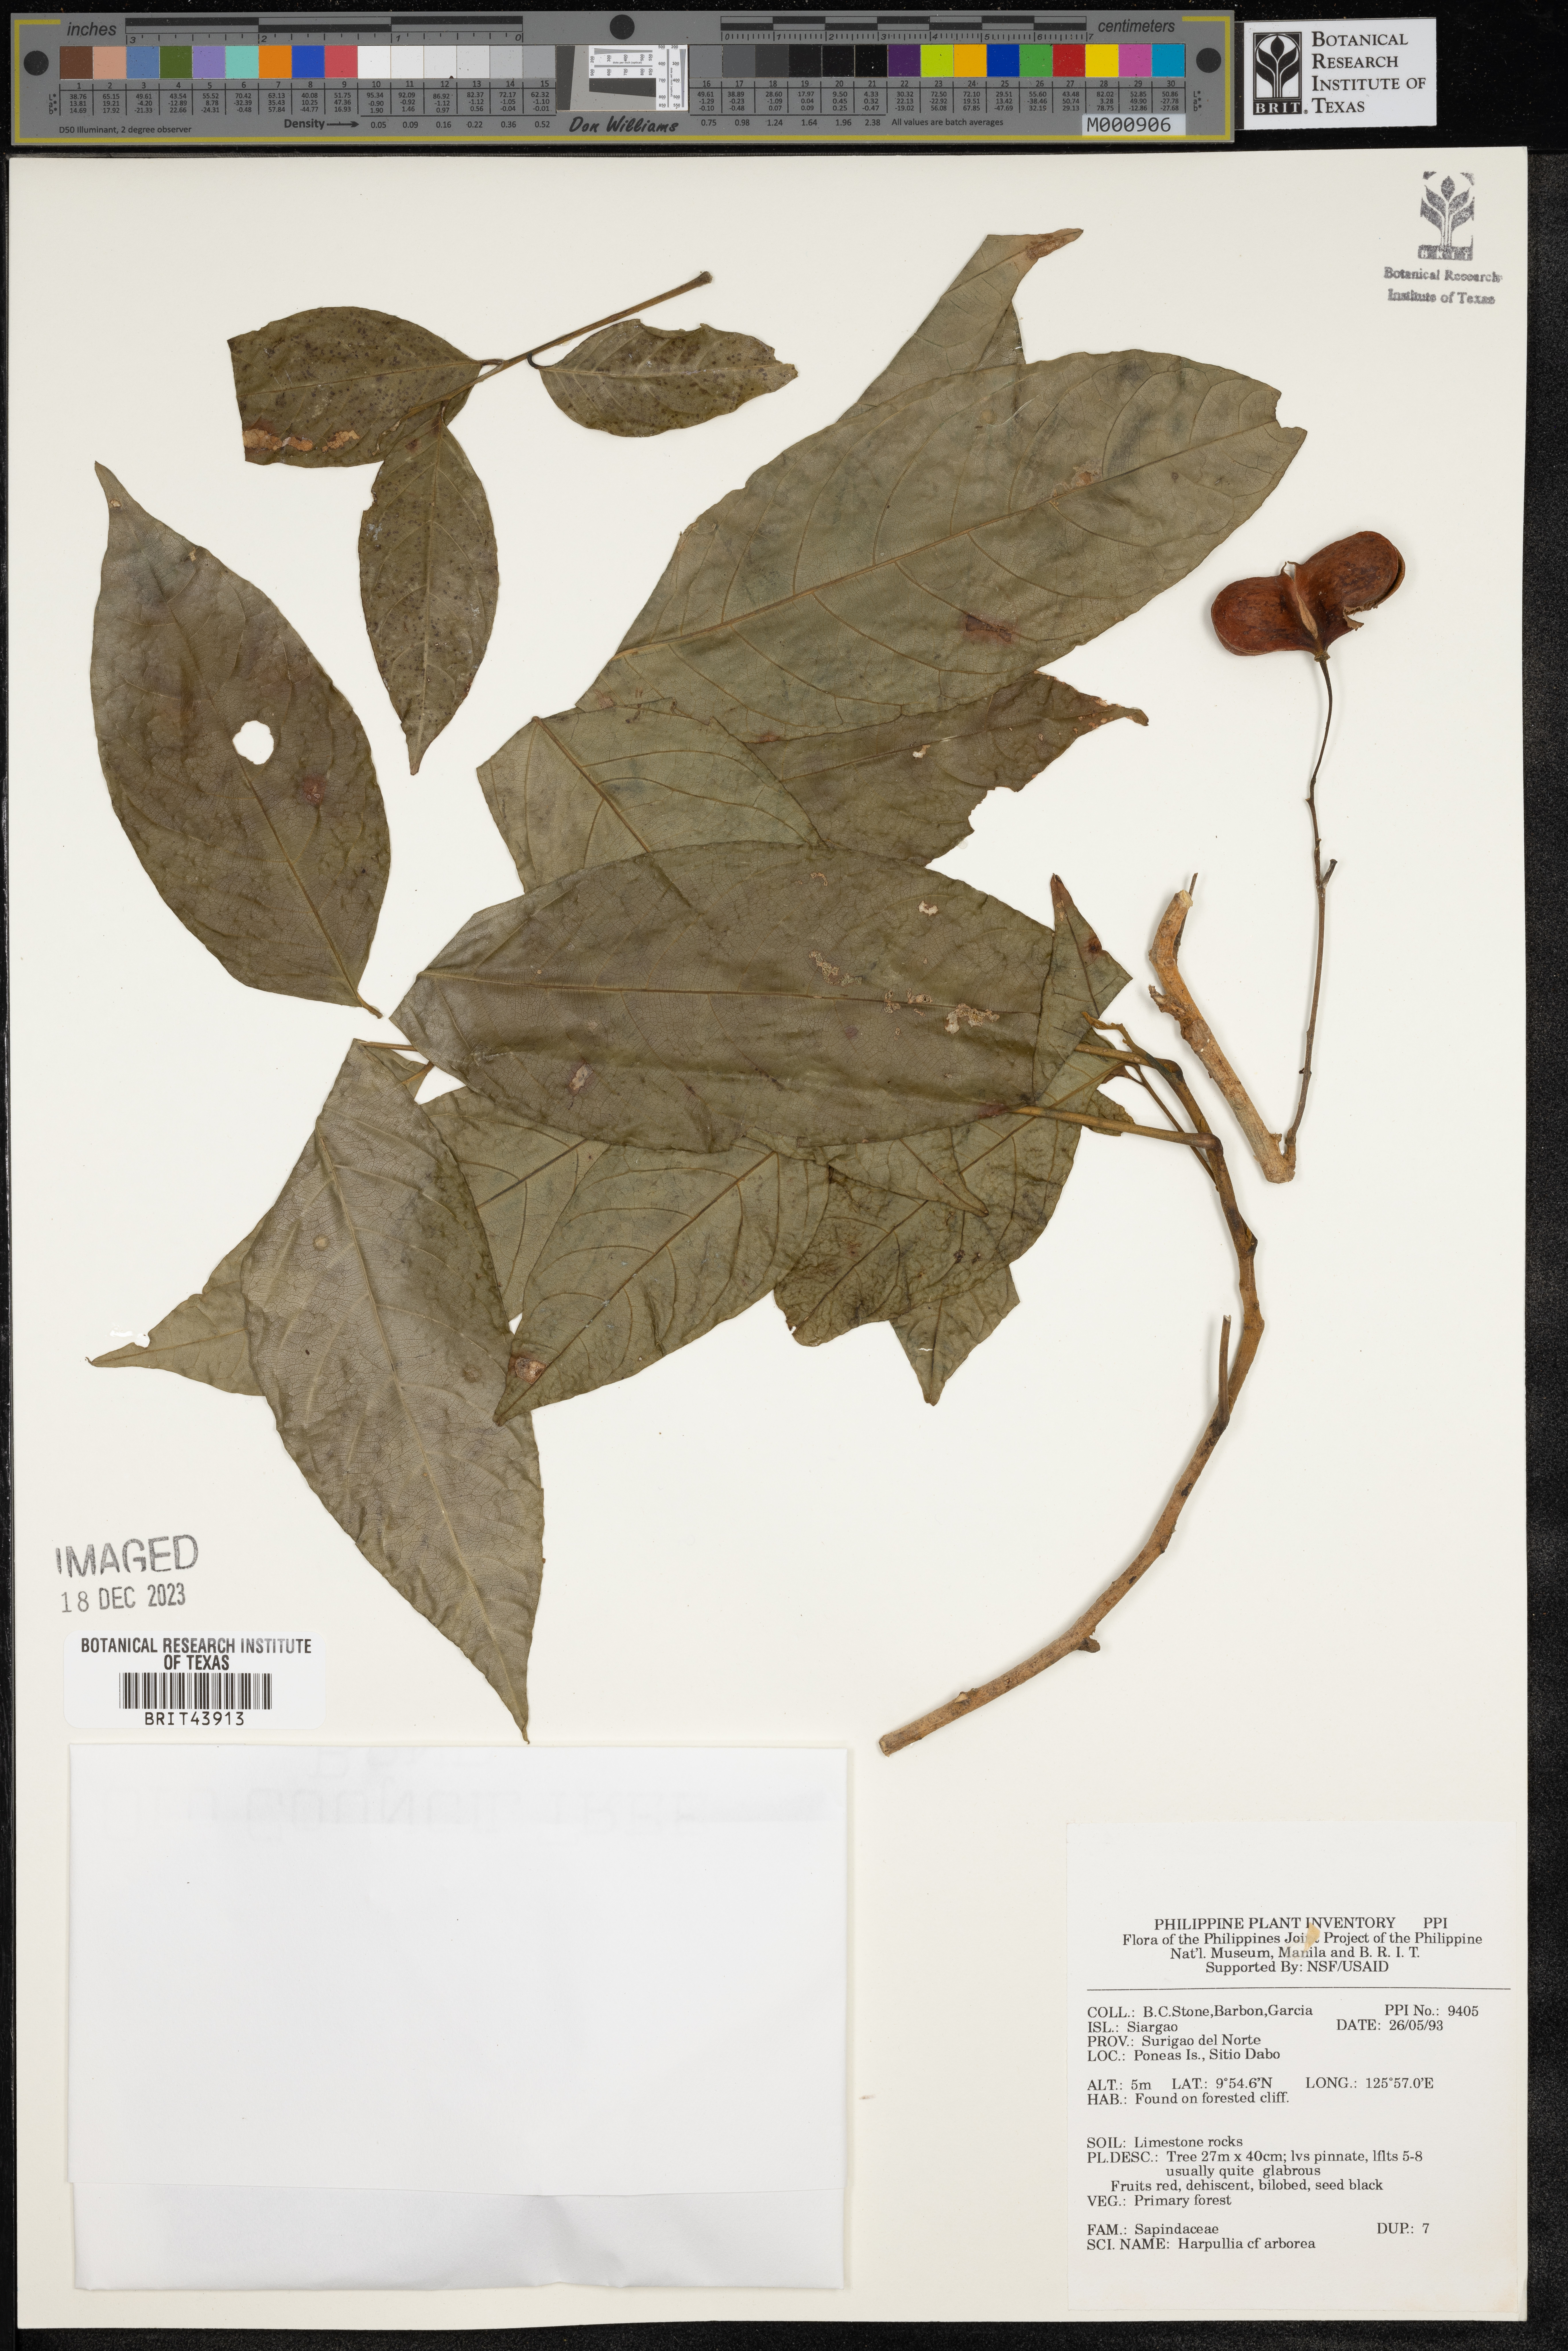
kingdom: Plantae
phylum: Tracheophyta
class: Magnoliopsida
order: Sapindales
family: Sapindaceae
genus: Harpullia
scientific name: Harpullia arborea
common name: Tulip-wood tree
